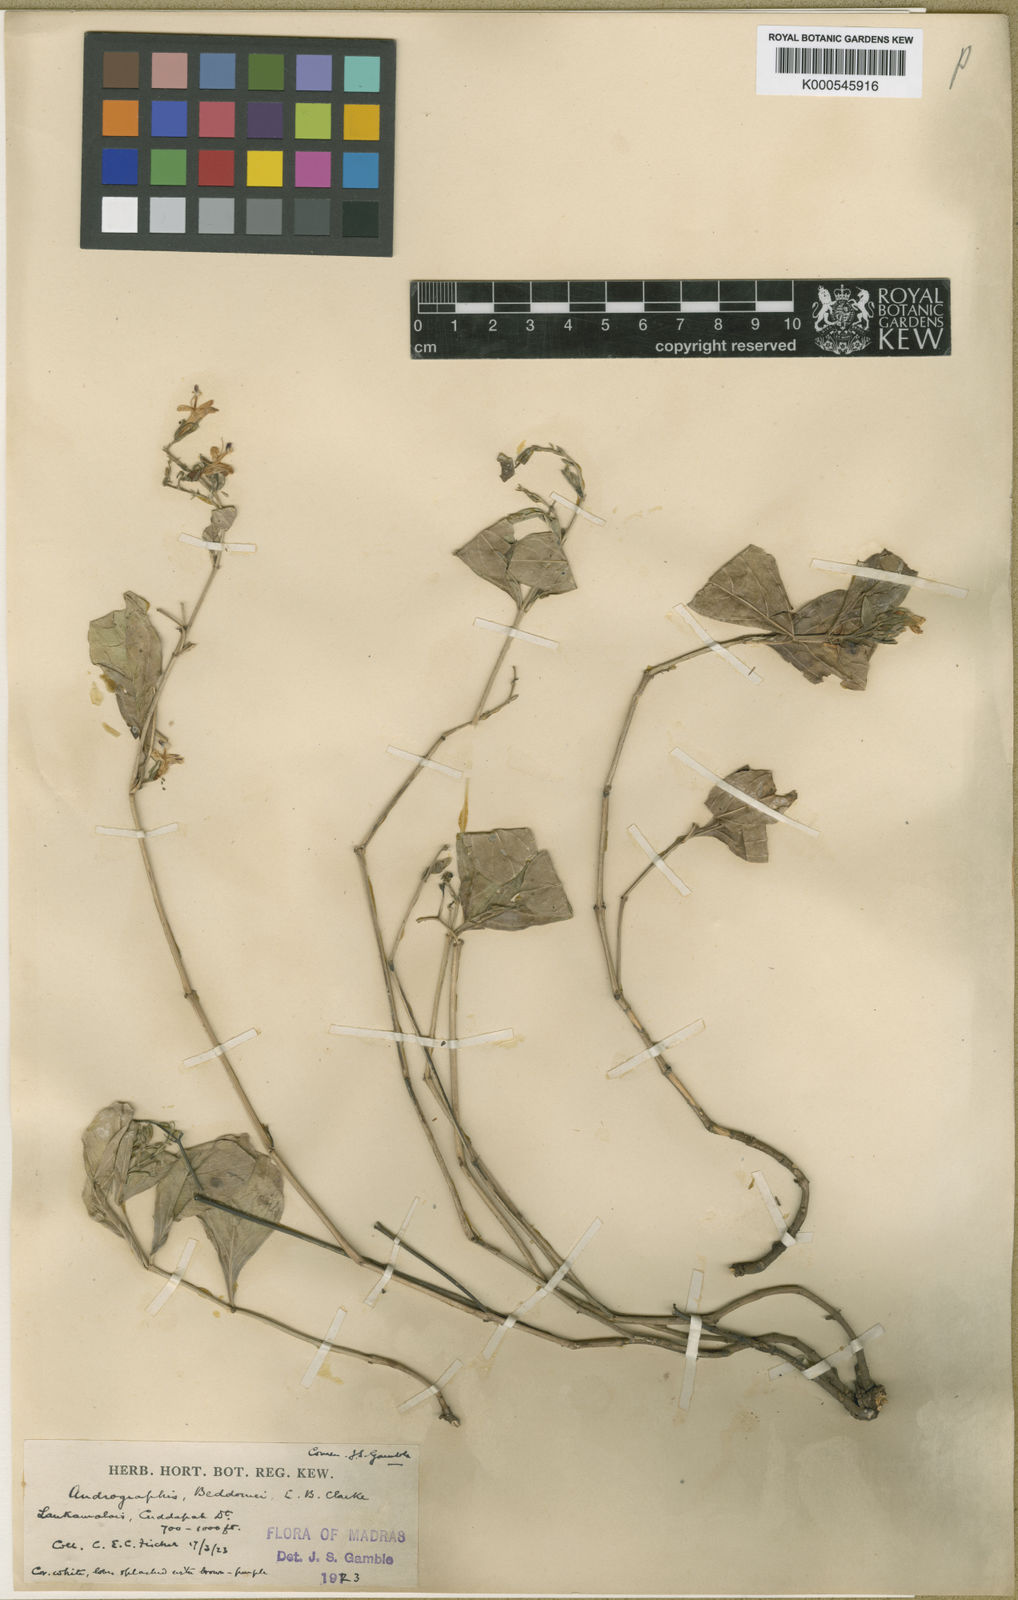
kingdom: Plantae
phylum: Tracheophyta
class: Magnoliopsida
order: Lamiales
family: Acanthaceae
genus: Andrographis
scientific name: Andrographis beddomei
